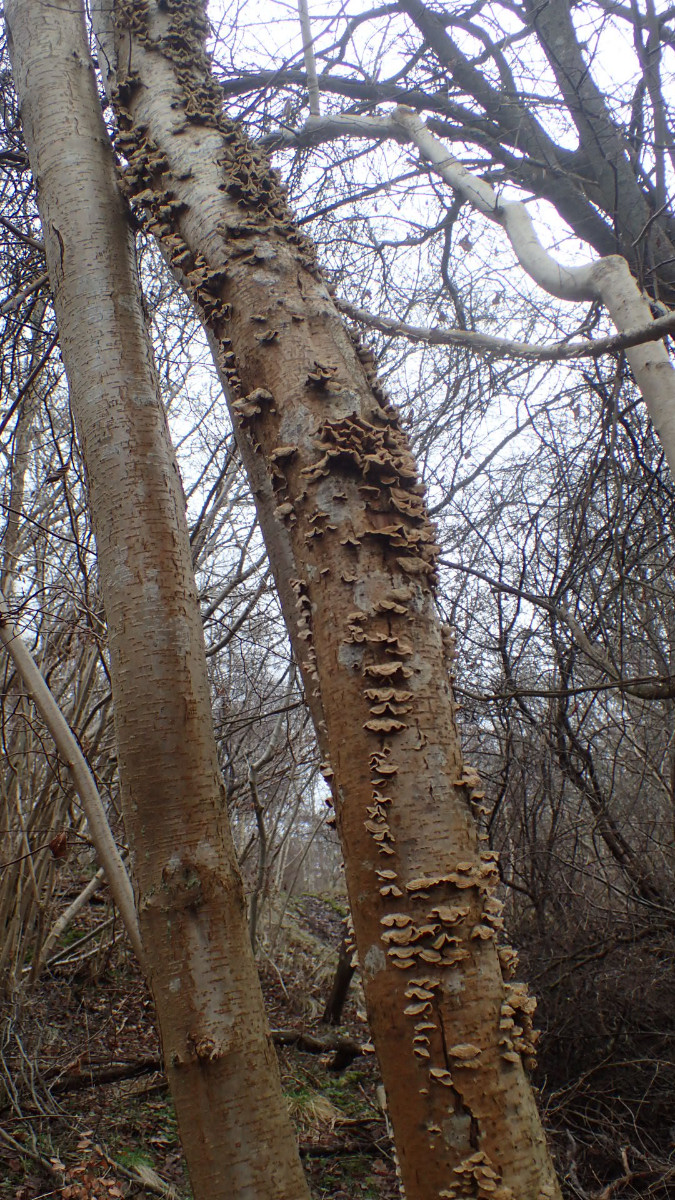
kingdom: Fungi
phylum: Basidiomycota
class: Agaricomycetes
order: Russulales
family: Stereaceae
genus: Stereum
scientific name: Stereum hirsutum
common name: håret lædersvamp
